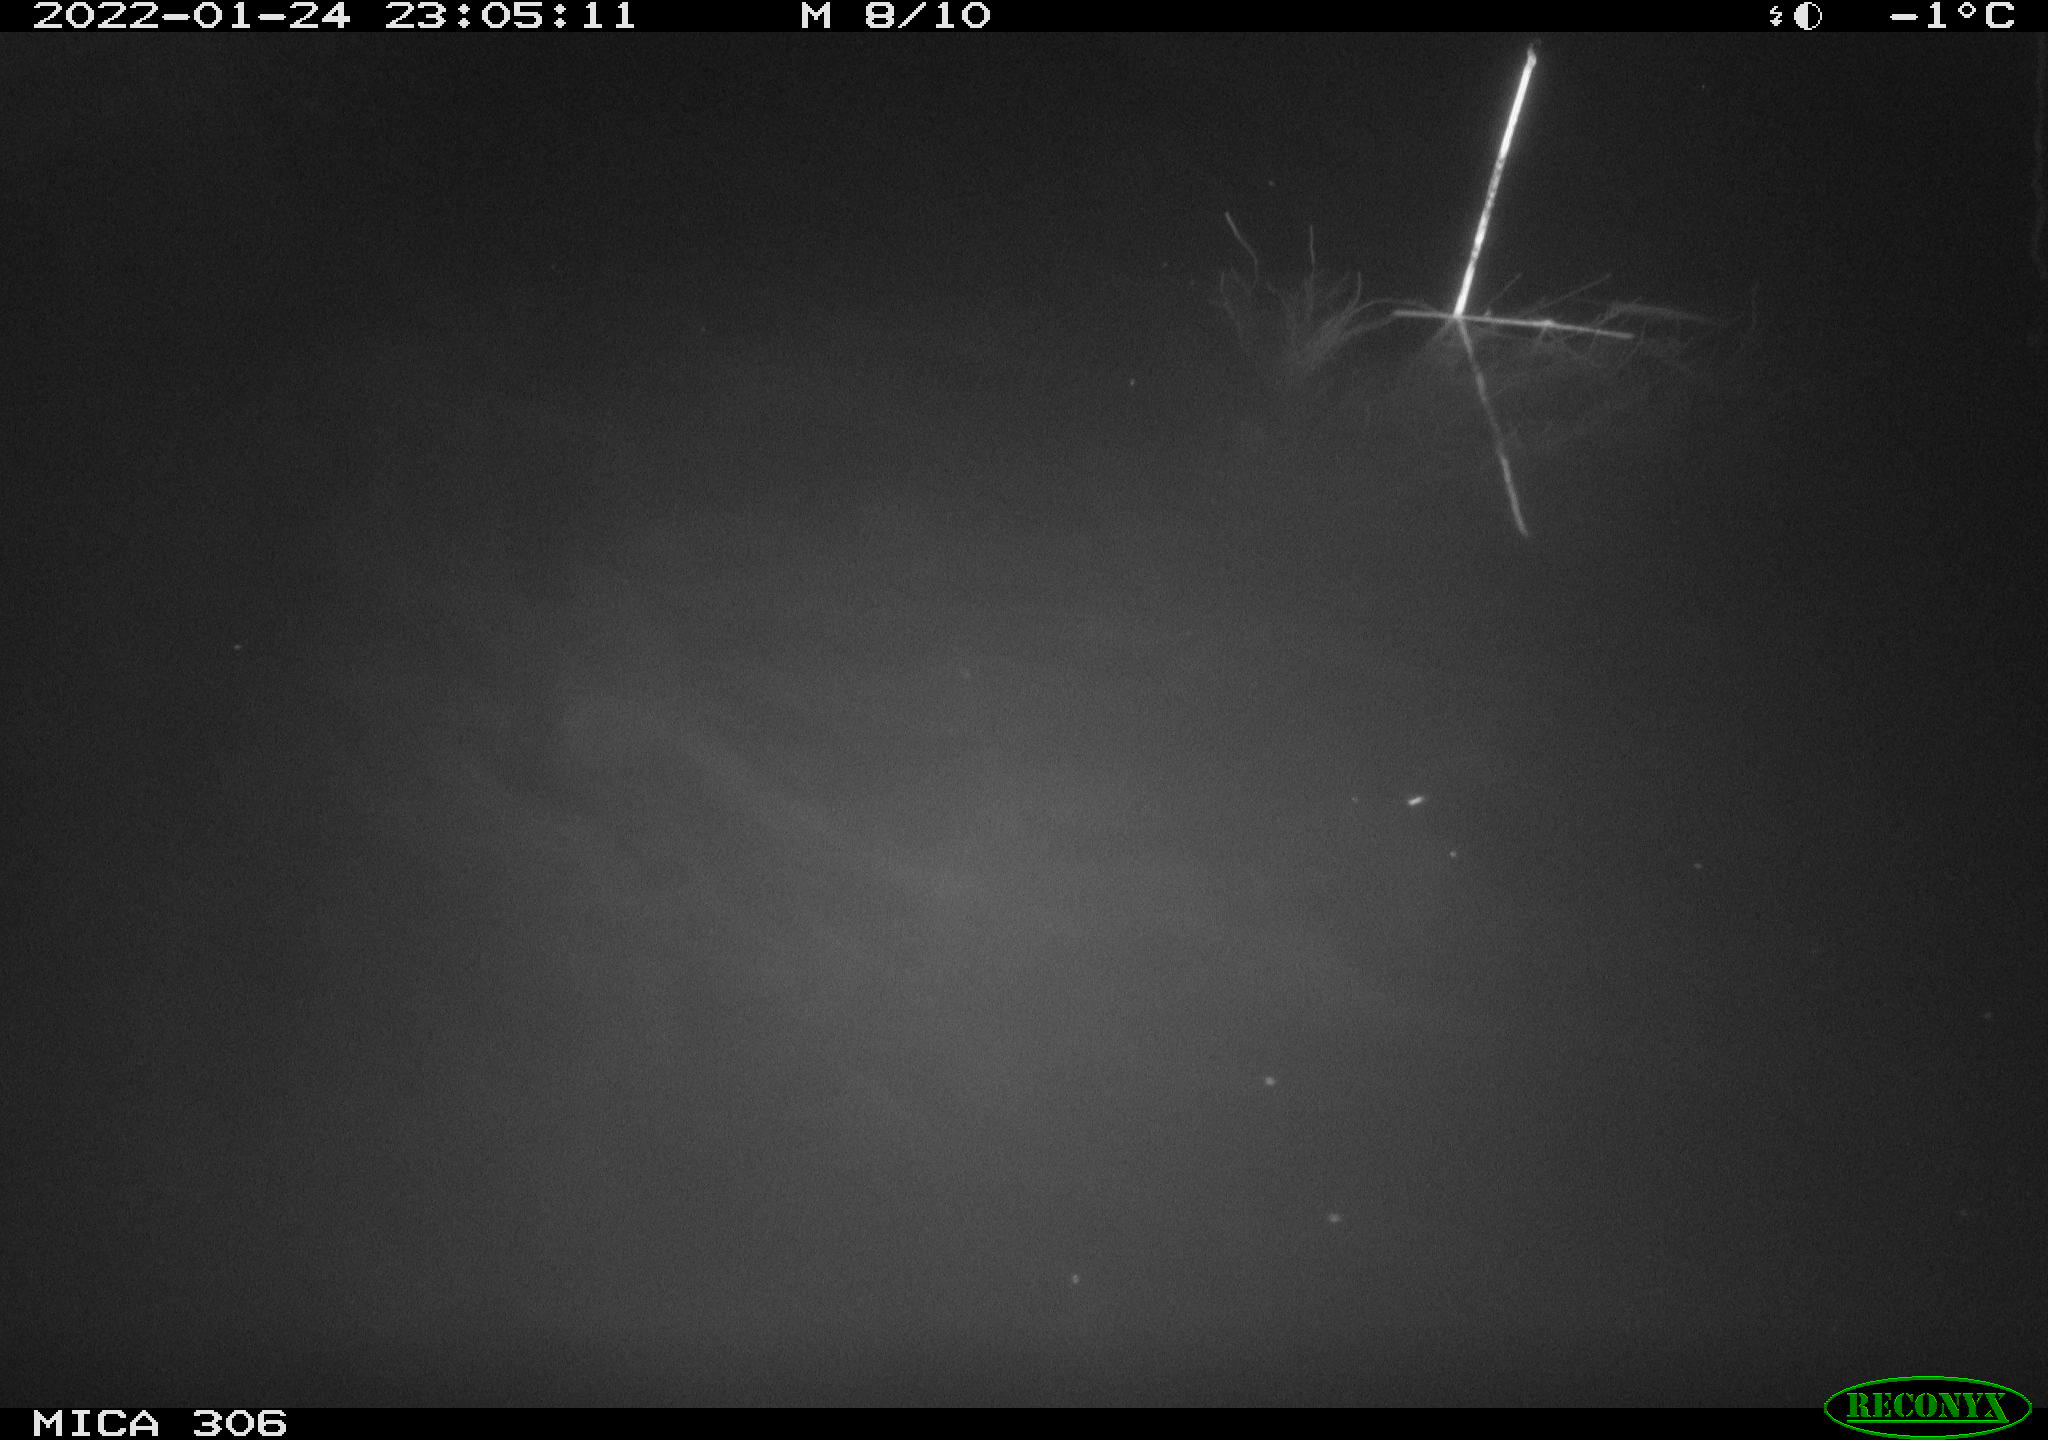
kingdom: Animalia
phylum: Chordata
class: Mammalia
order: Rodentia
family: Cricetidae
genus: Ondatra
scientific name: Ondatra zibethicus
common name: Muskrat
